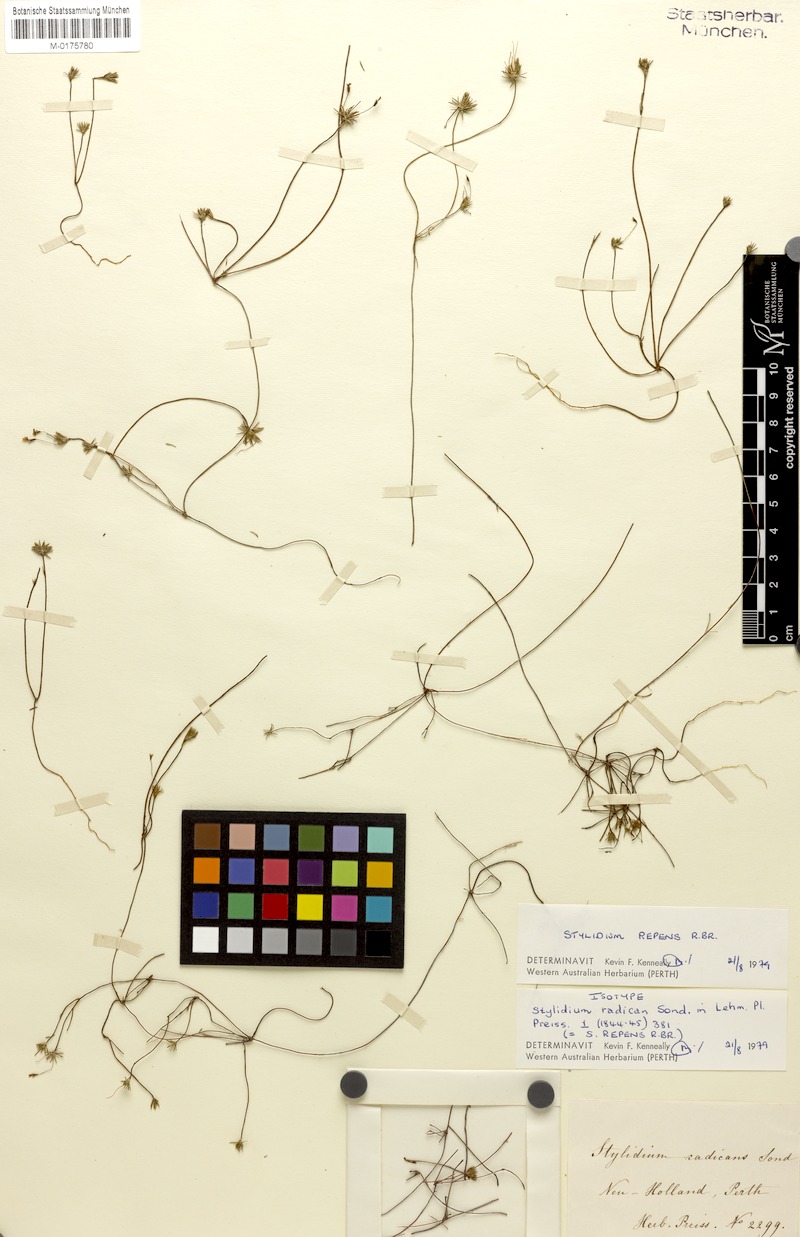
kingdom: Plantae
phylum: Tracheophyta
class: Magnoliopsida
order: Asterales
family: Stylidiaceae
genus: Stylidium
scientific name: Stylidium repens
